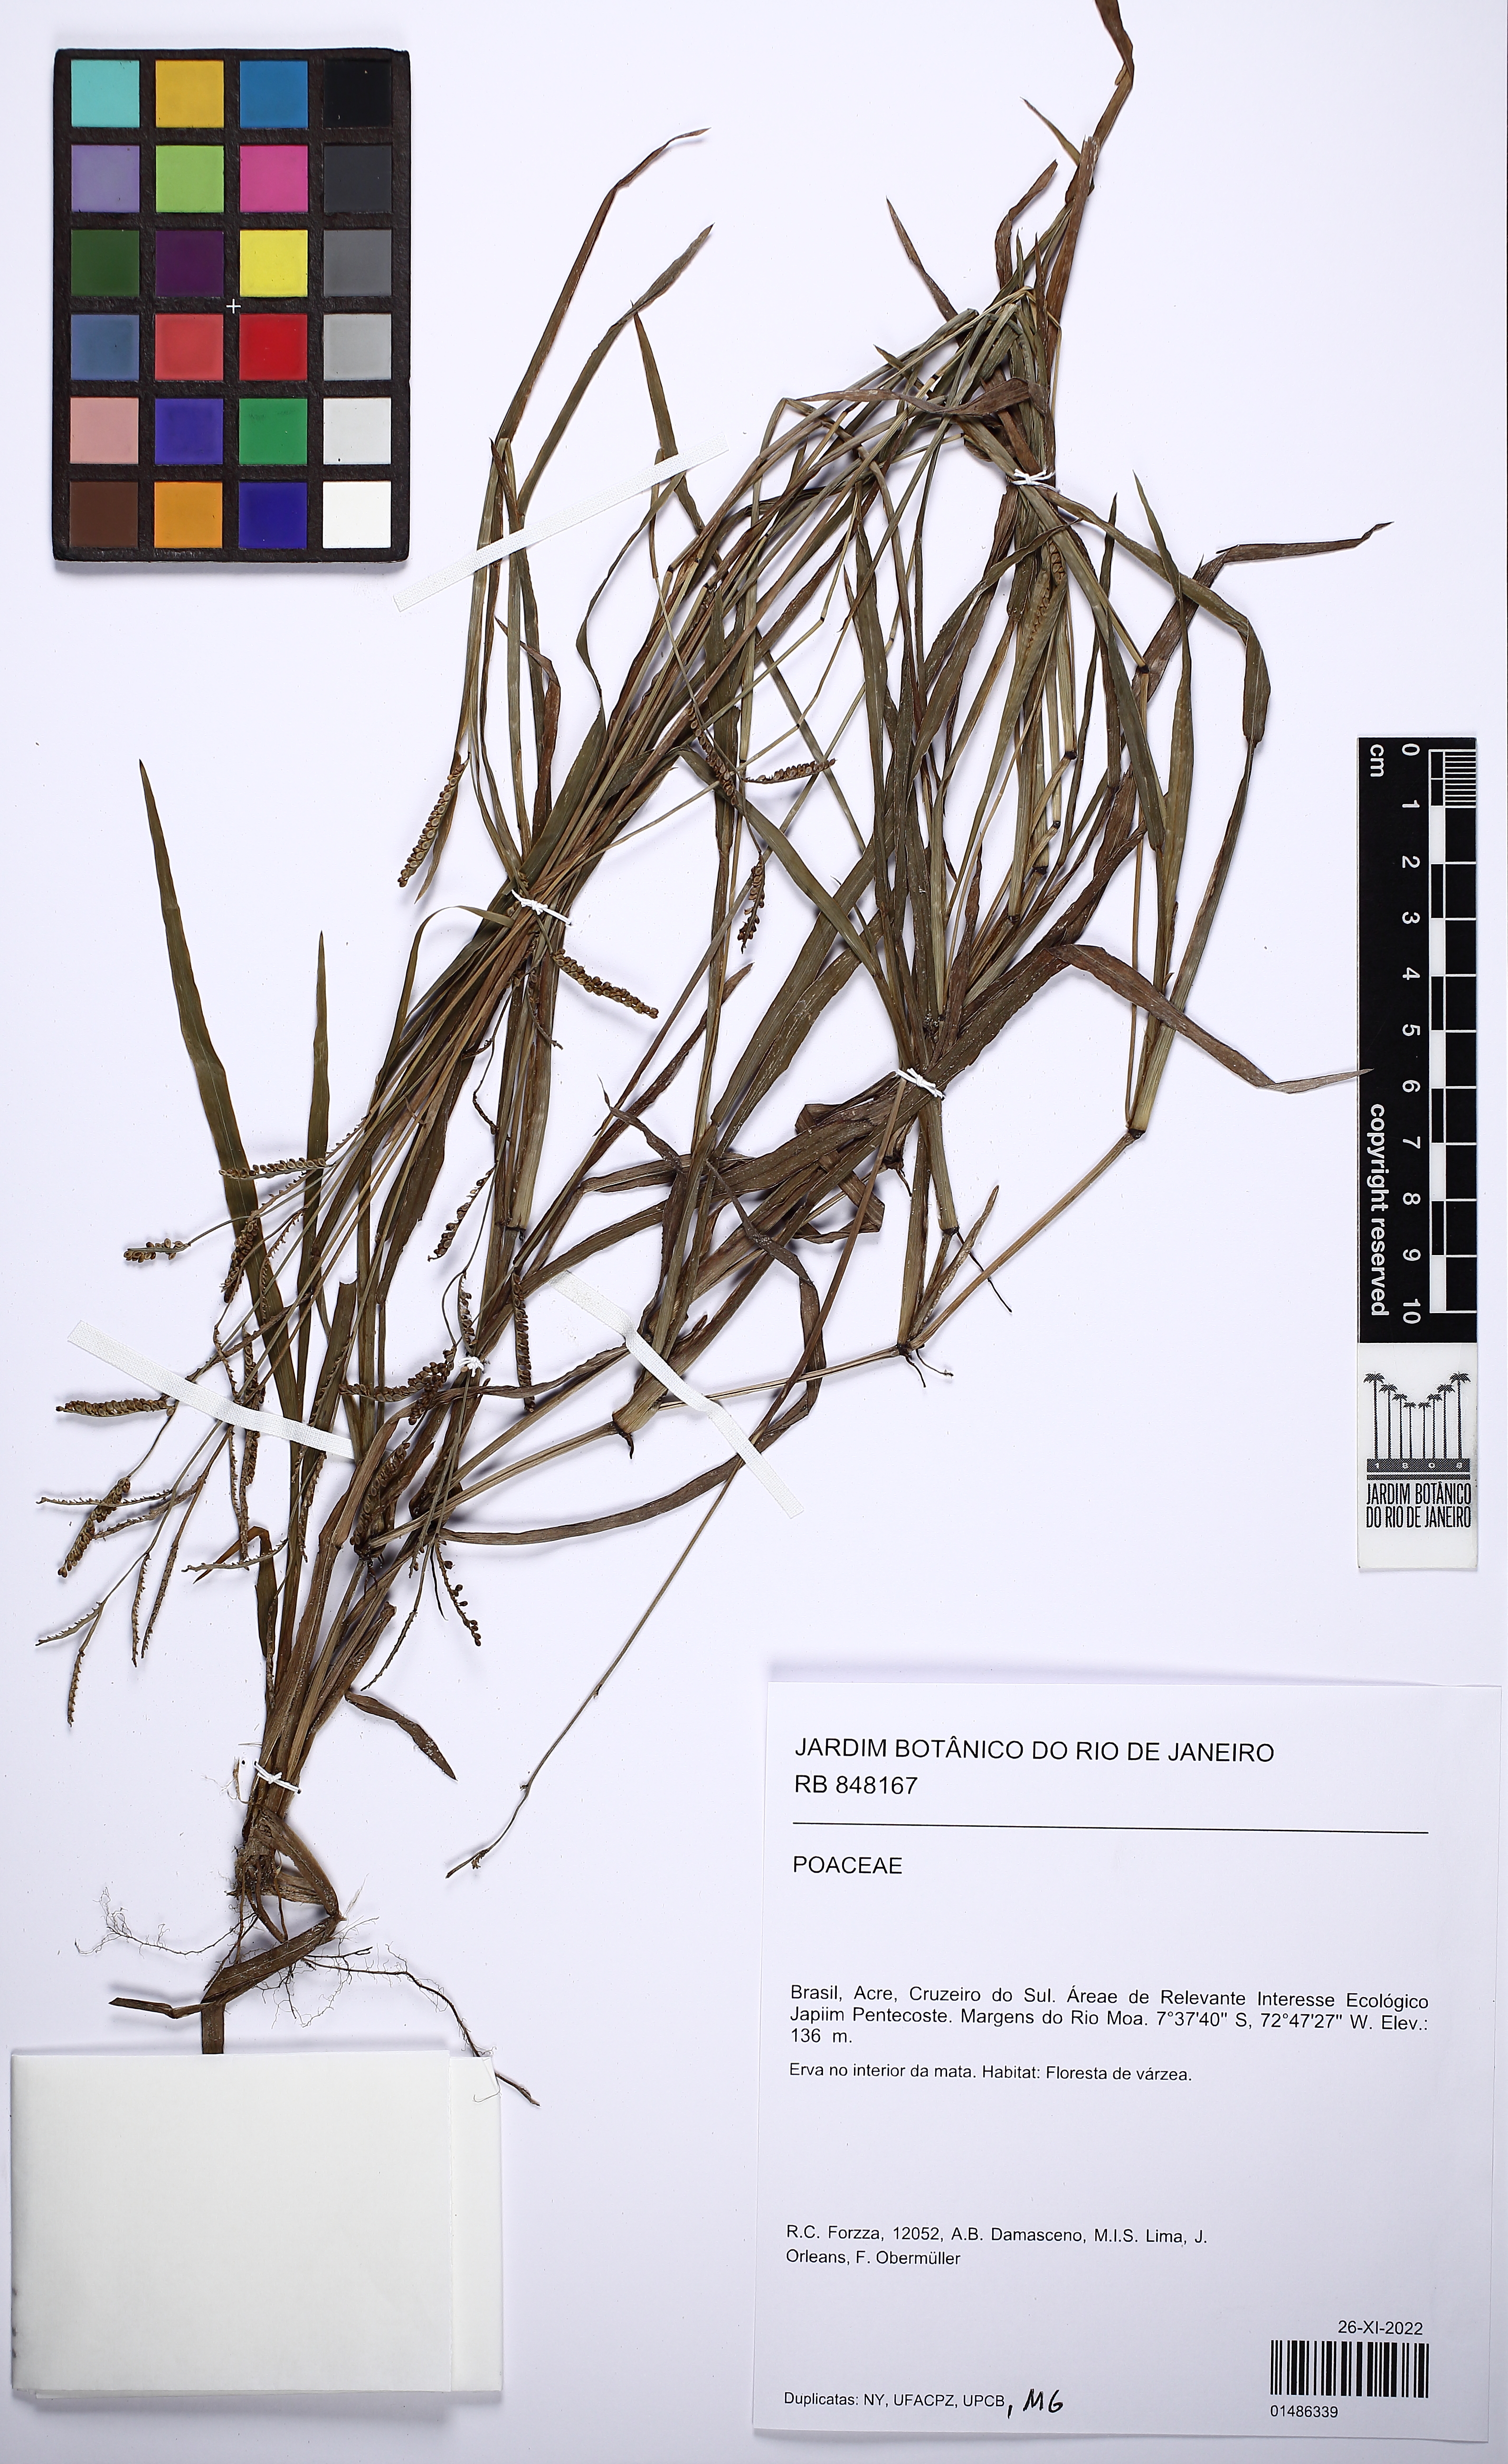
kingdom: Plantae
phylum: Tracheophyta
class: Liliopsida
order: Poales
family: Poaceae
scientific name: Poaceae
